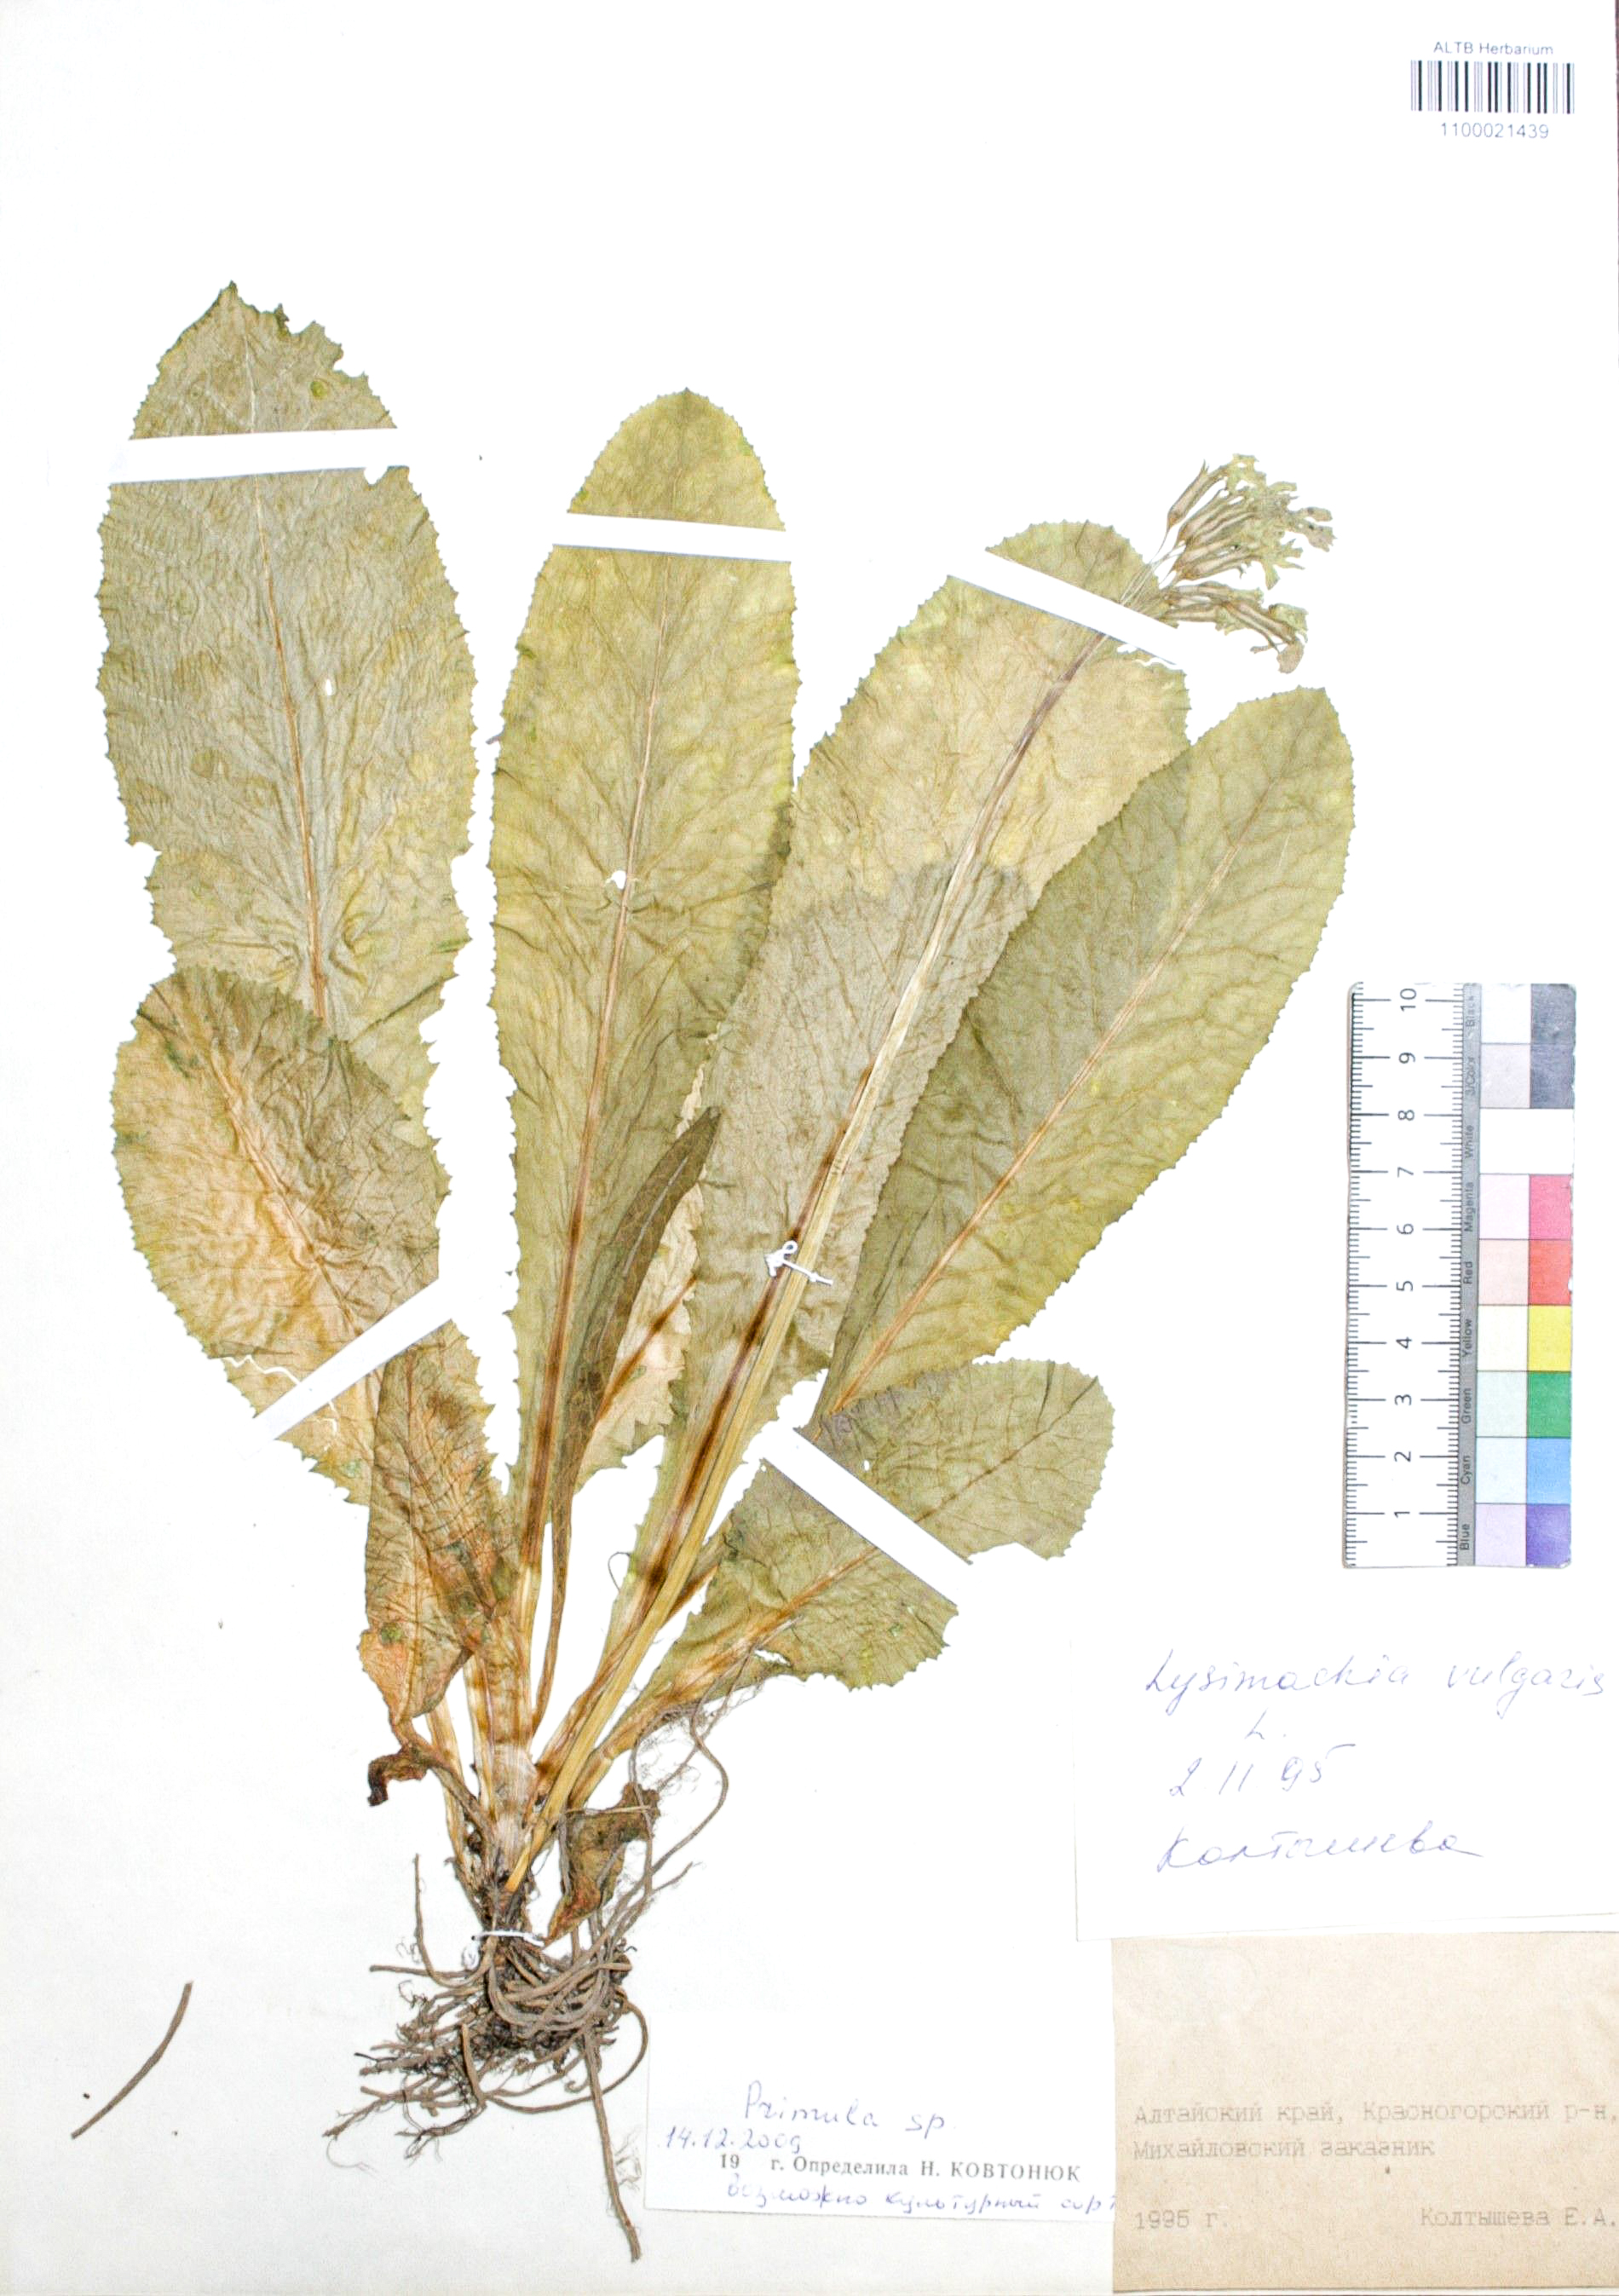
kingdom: Plantae
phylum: Tracheophyta
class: Magnoliopsida
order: Ericales
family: Primulaceae
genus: Primula
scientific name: Primula
